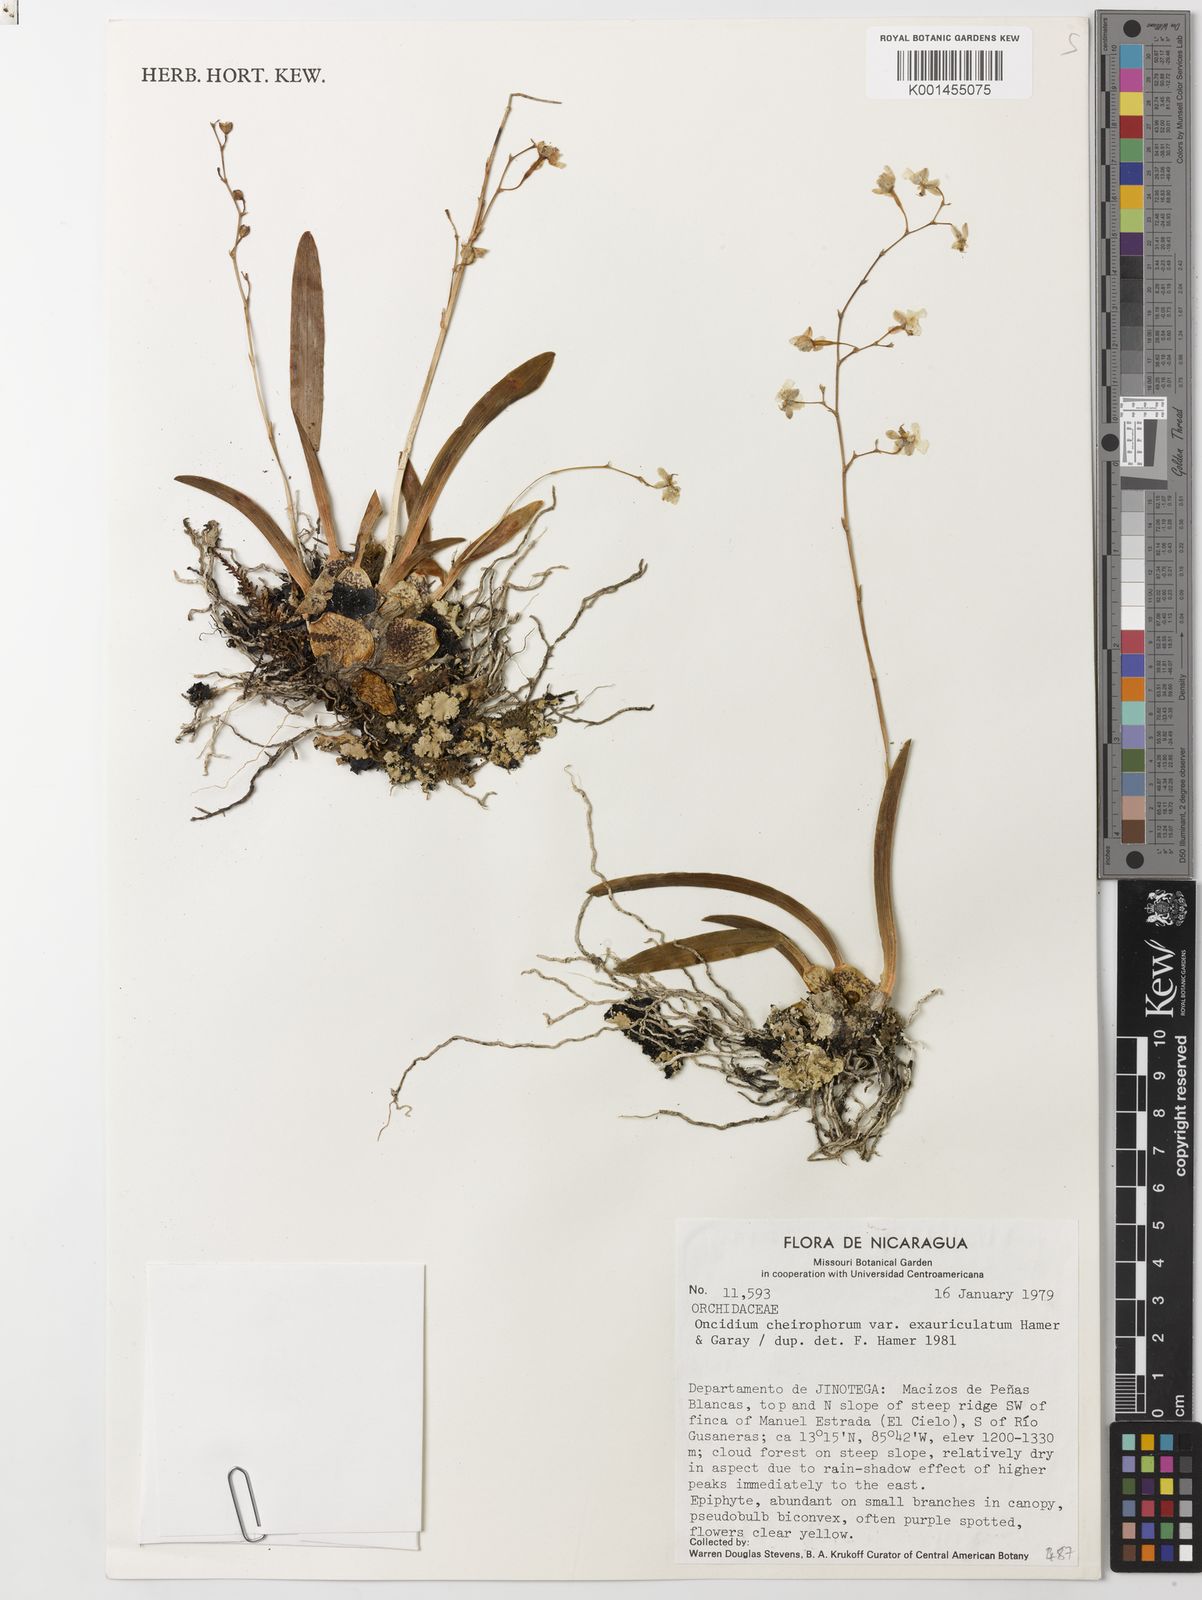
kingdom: Plantae
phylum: Tracheophyta
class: Liliopsida
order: Asparagales
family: Orchidaceae
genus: Oncidium
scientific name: Oncidium cheirophorum
